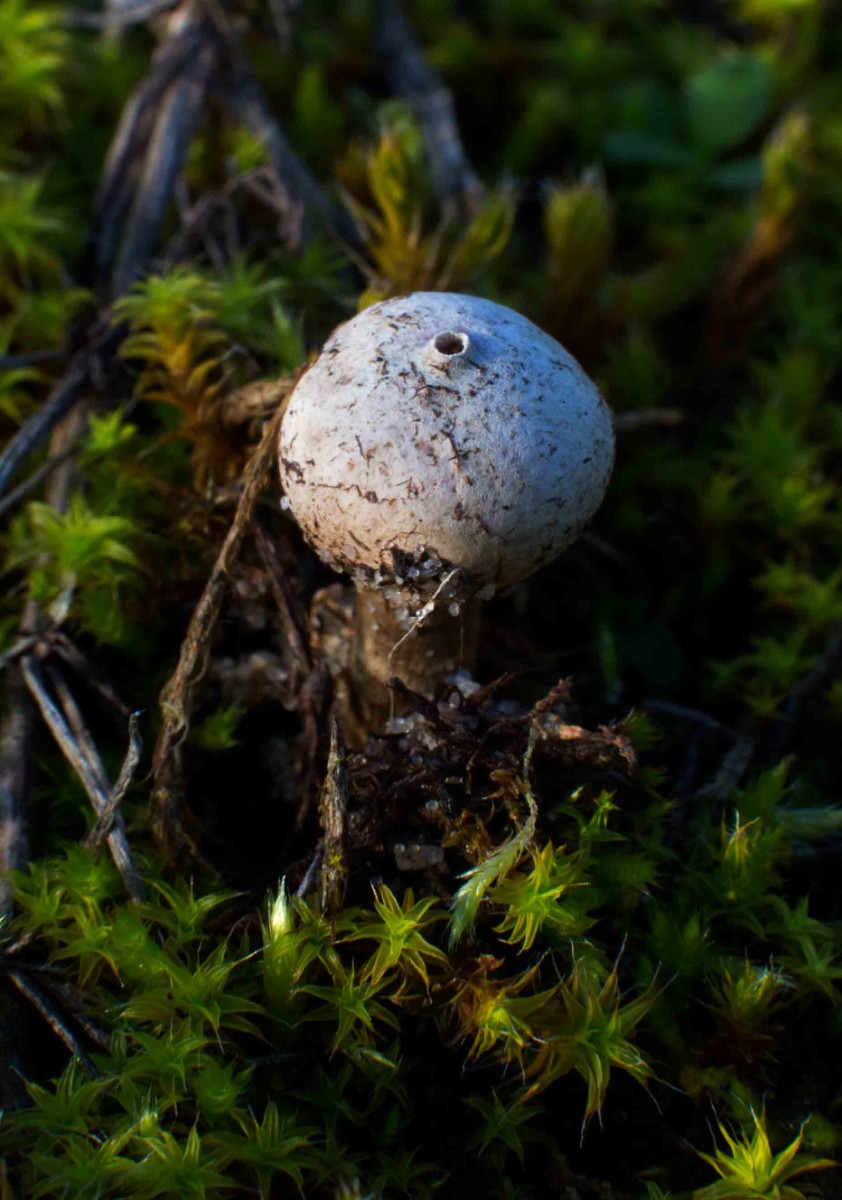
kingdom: Fungi
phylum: Basidiomycota
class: Agaricomycetes
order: Agaricales
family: Agaricaceae
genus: Tulostoma
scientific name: Tulostoma
